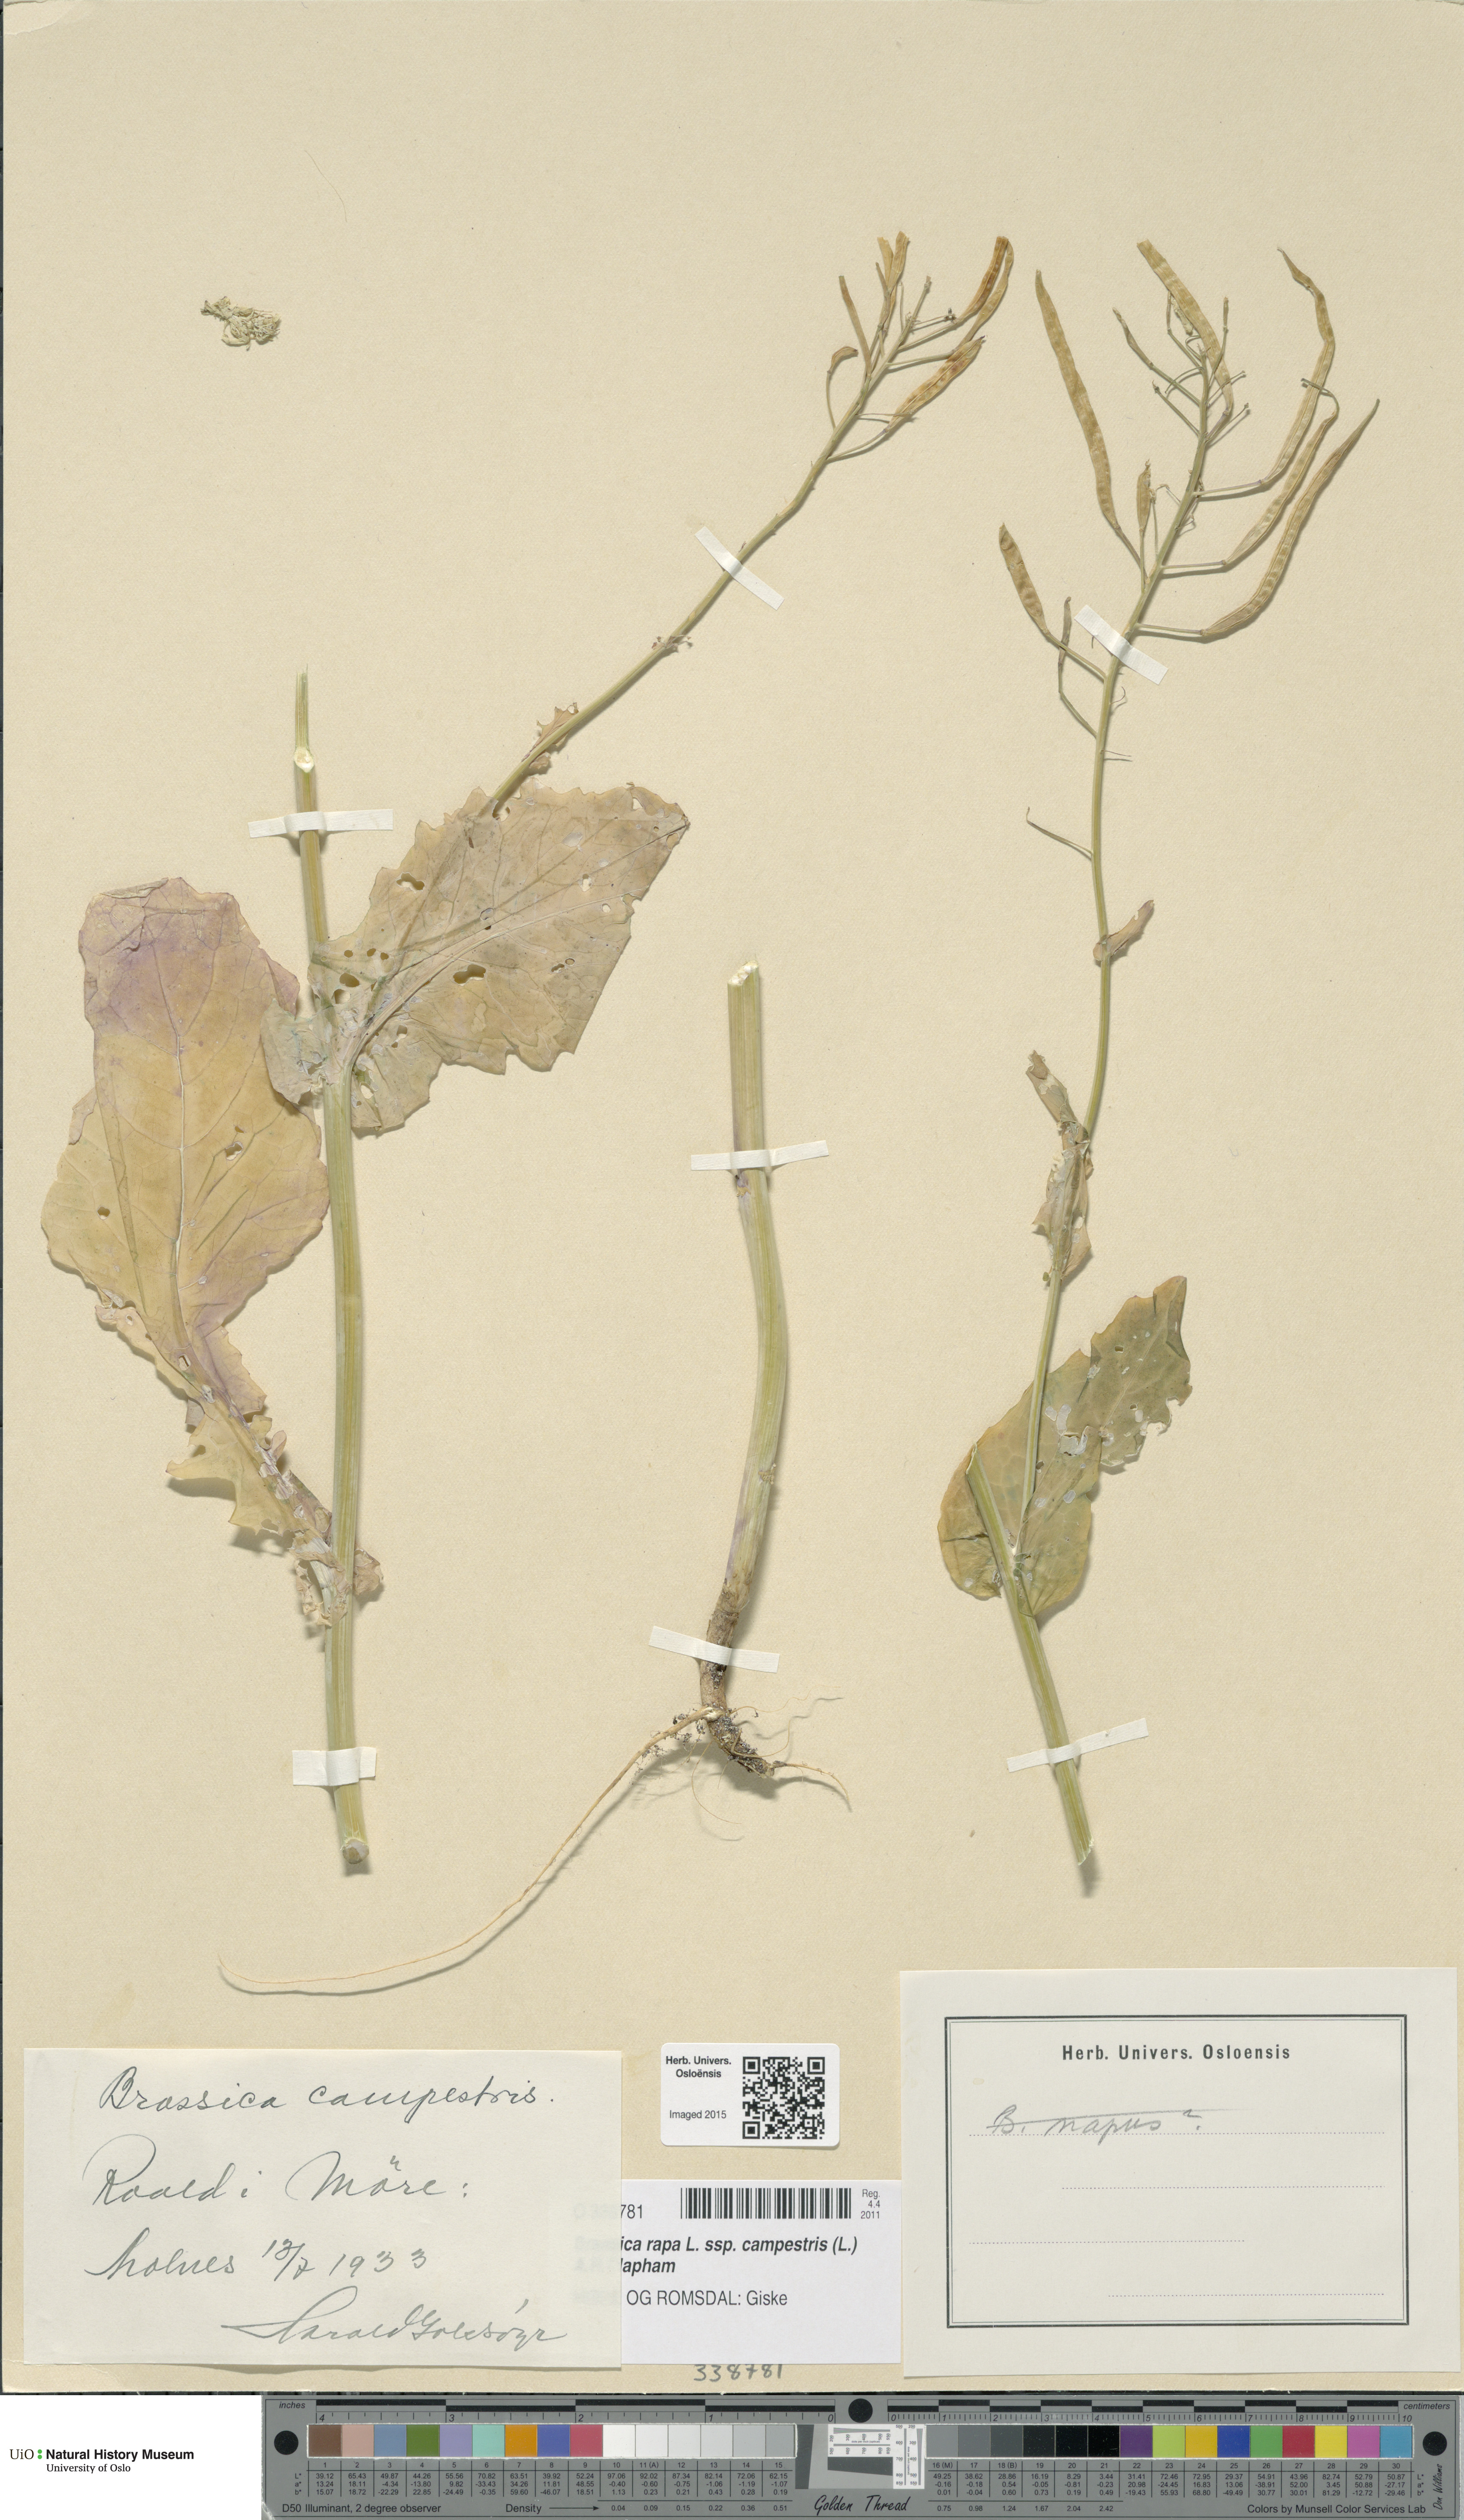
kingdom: Plantae
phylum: Tracheophyta
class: Magnoliopsida
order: Brassicales
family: Brassicaceae
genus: Brassica
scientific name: Brassica rapa
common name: Field mustard
